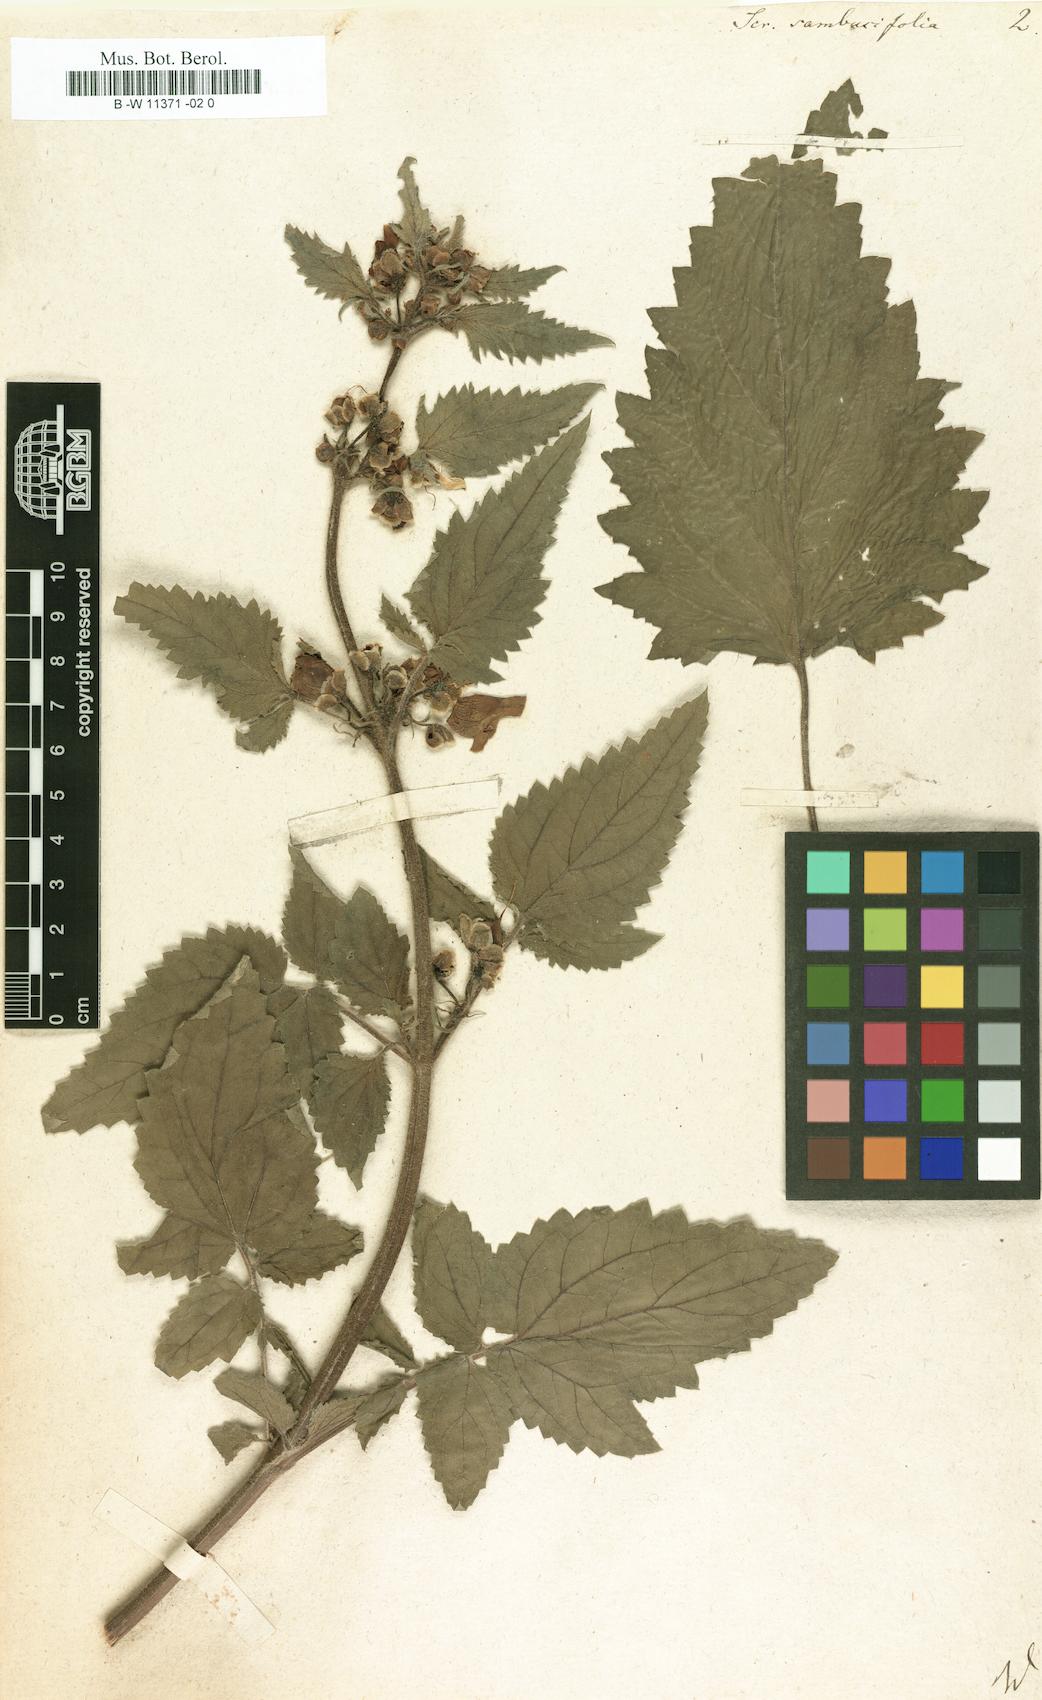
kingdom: Plantae
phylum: Tracheophyta
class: Magnoliopsida
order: Lamiales
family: Scrophulariaceae
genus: Scrophularia
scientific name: Scrophularia sambucifolia
